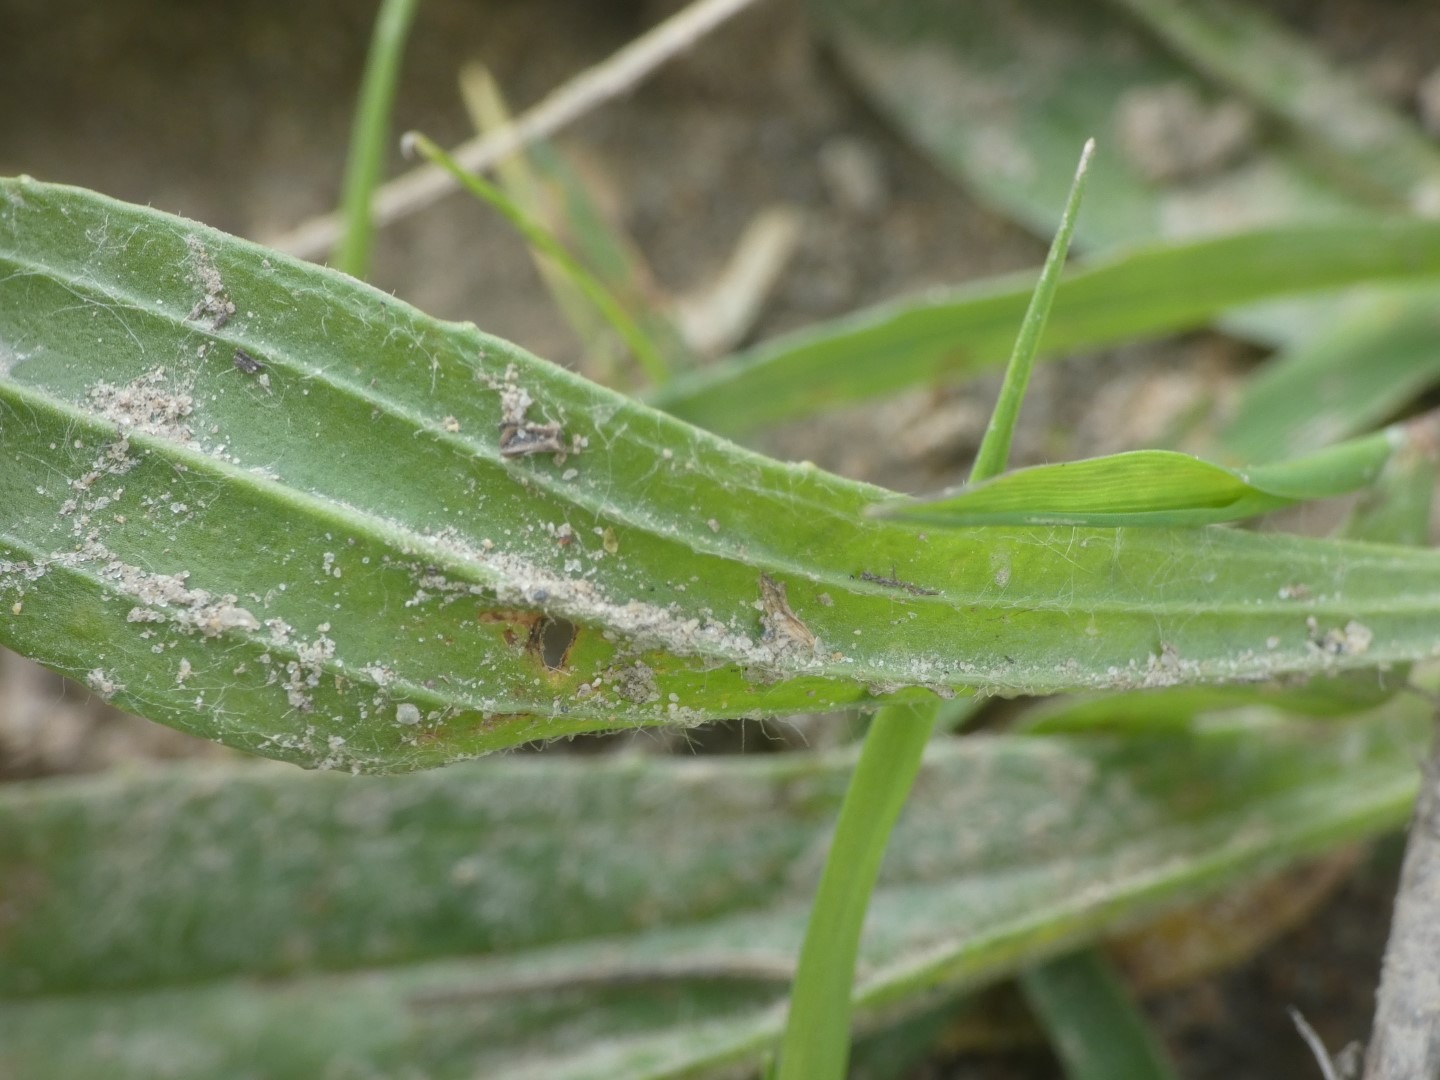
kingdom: Plantae
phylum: Tracheophyta
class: Magnoliopsida
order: Lamiales
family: Plantaginaceae
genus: Plantago
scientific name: Plantago lanceolata
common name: Lancet-vejbred
